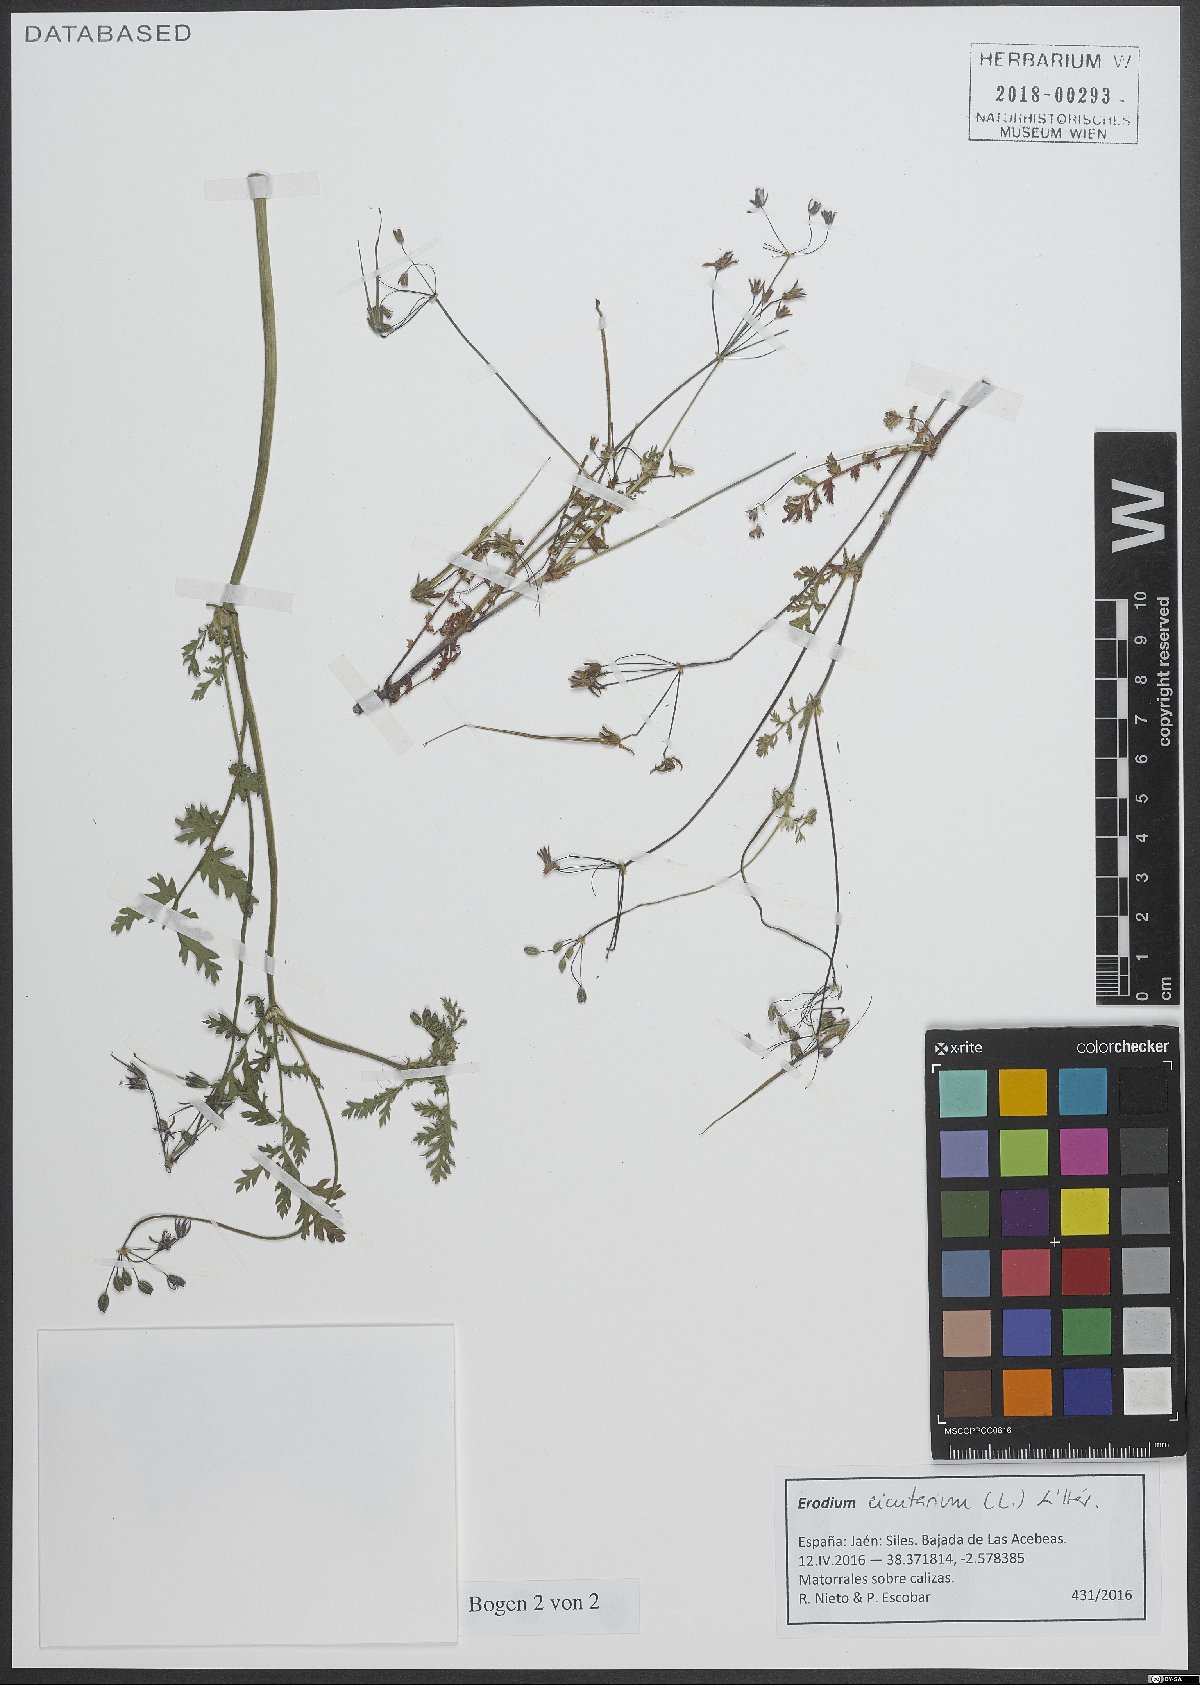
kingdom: Plantae
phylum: Tracheophyta
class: Magnoliopsida
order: Geraniales
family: Geraniaceae
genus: Erodium
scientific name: Erodium cicutarium
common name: Common stork's-bill
